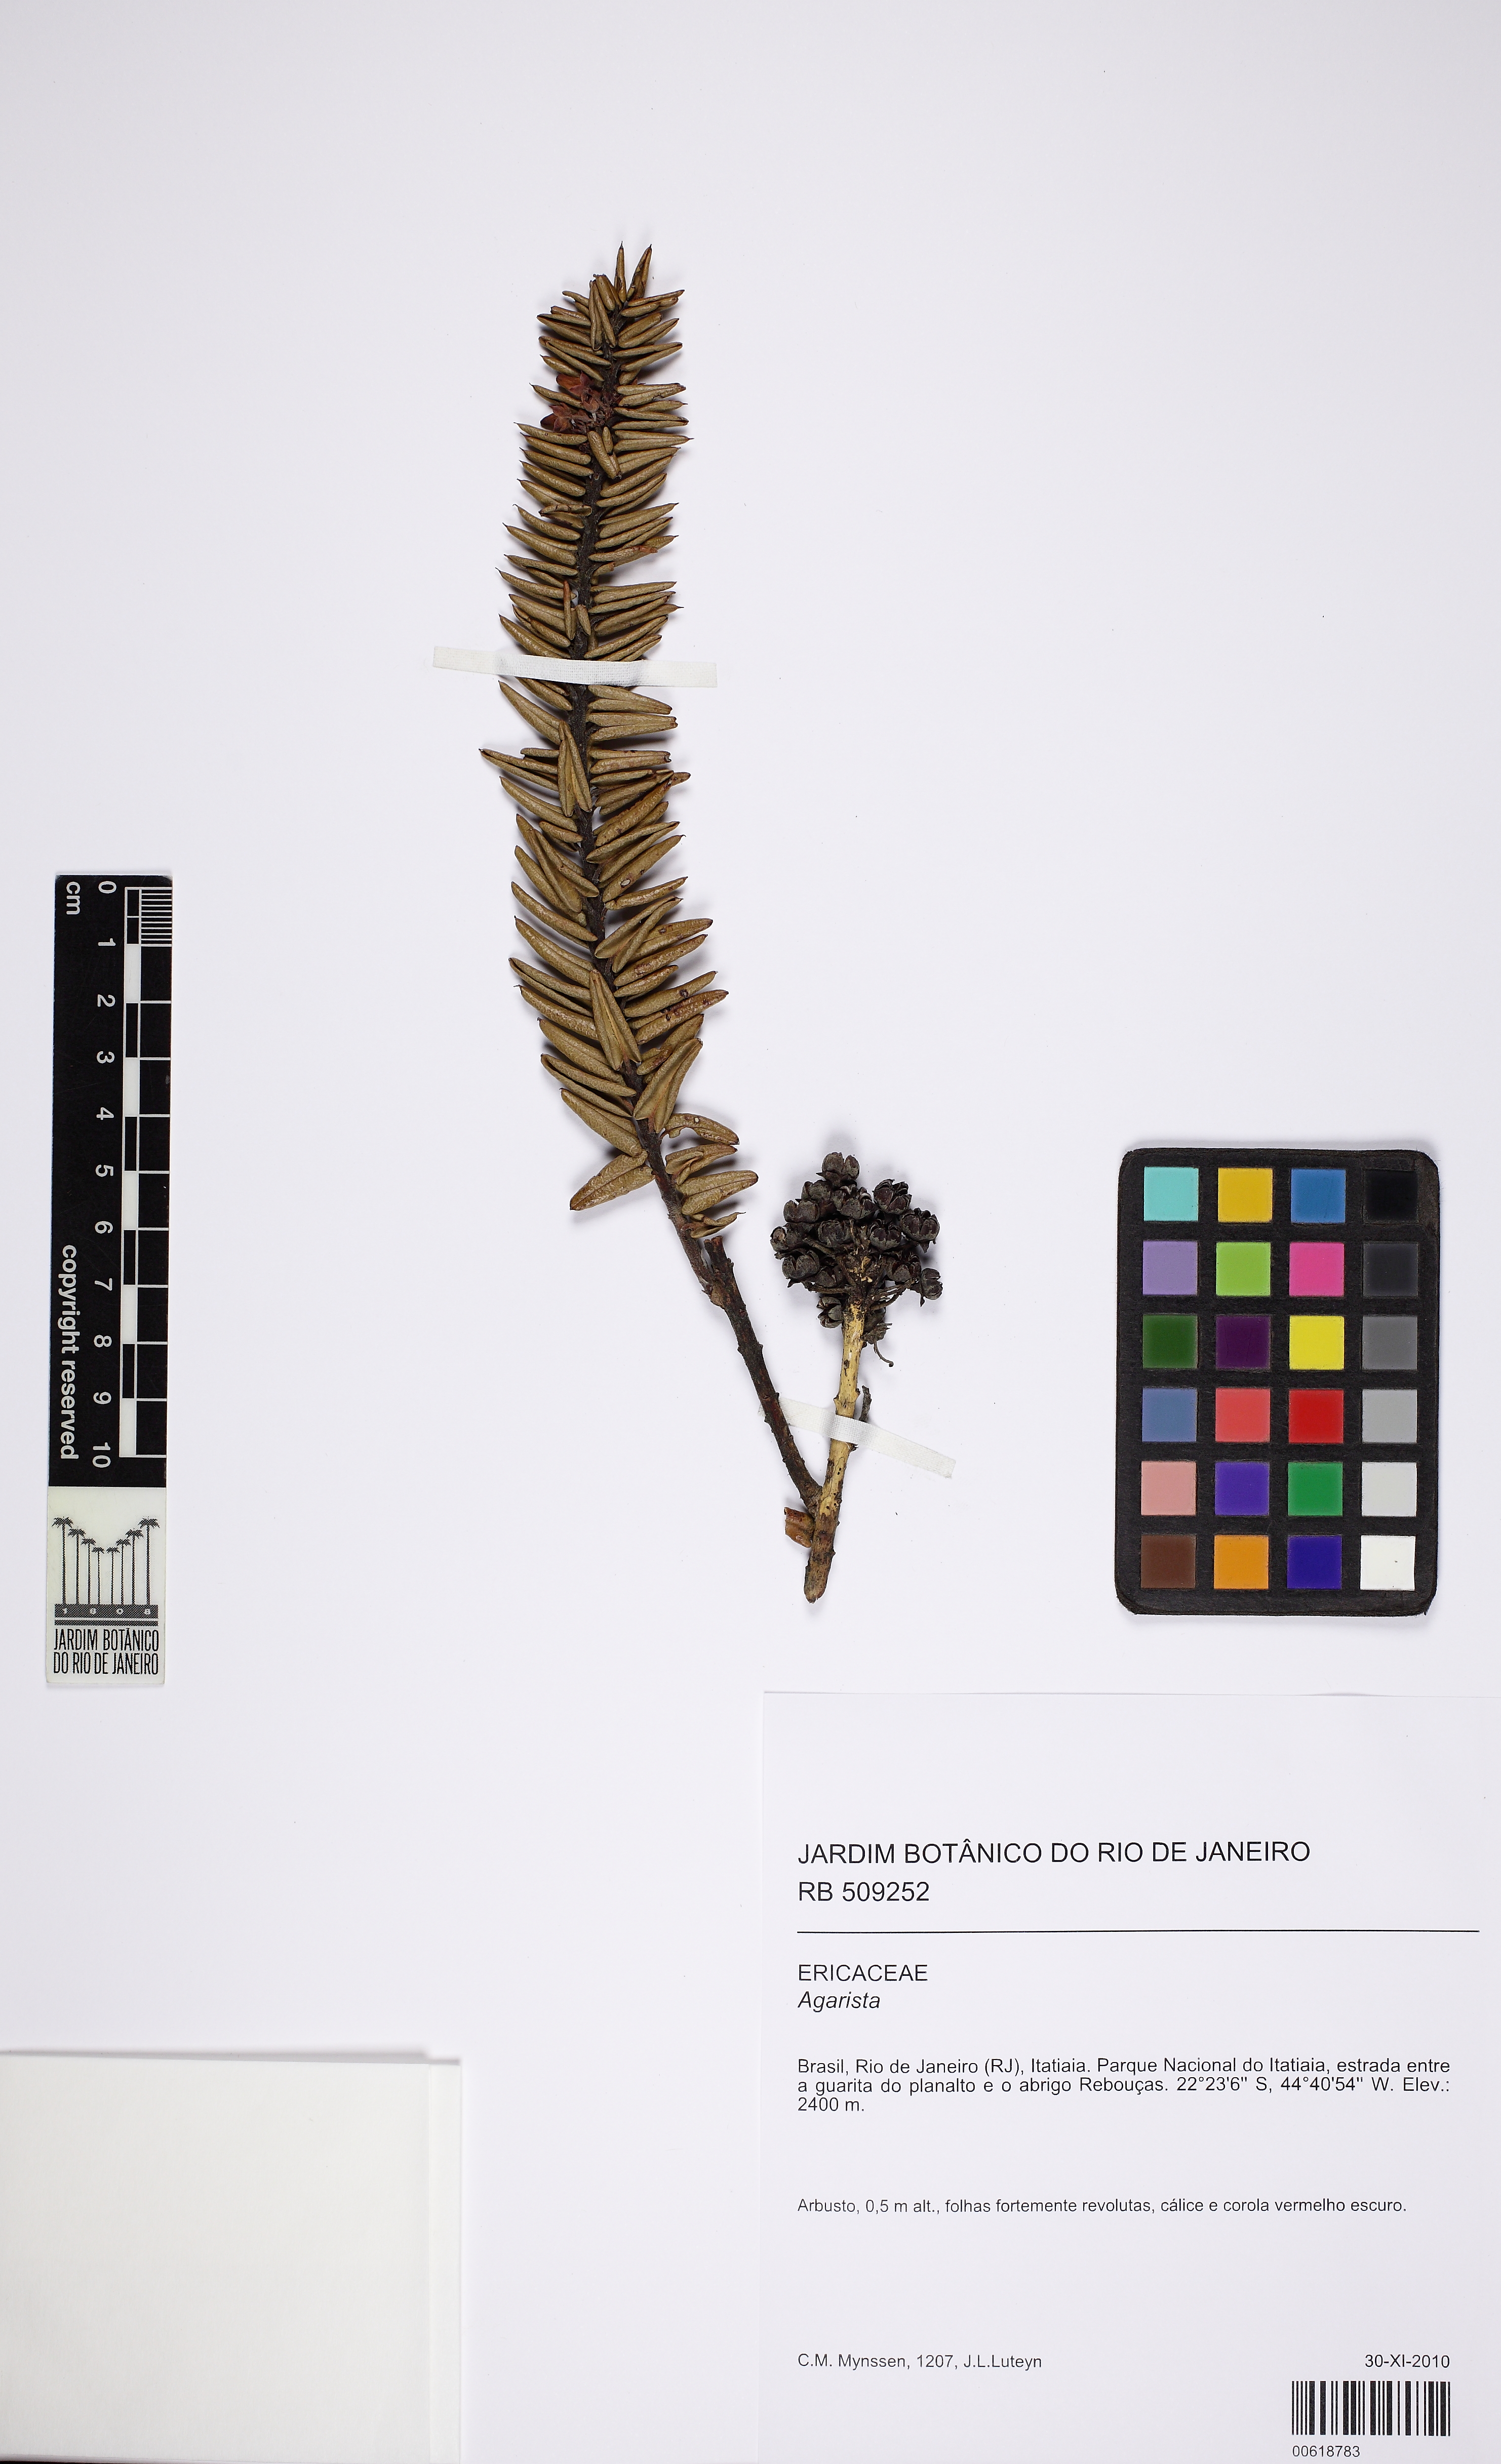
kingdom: Plantae
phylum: Tracheophyta
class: Magnoliopsida
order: Ericales
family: Ericaceae
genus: Agarista
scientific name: Agarista hispidula
